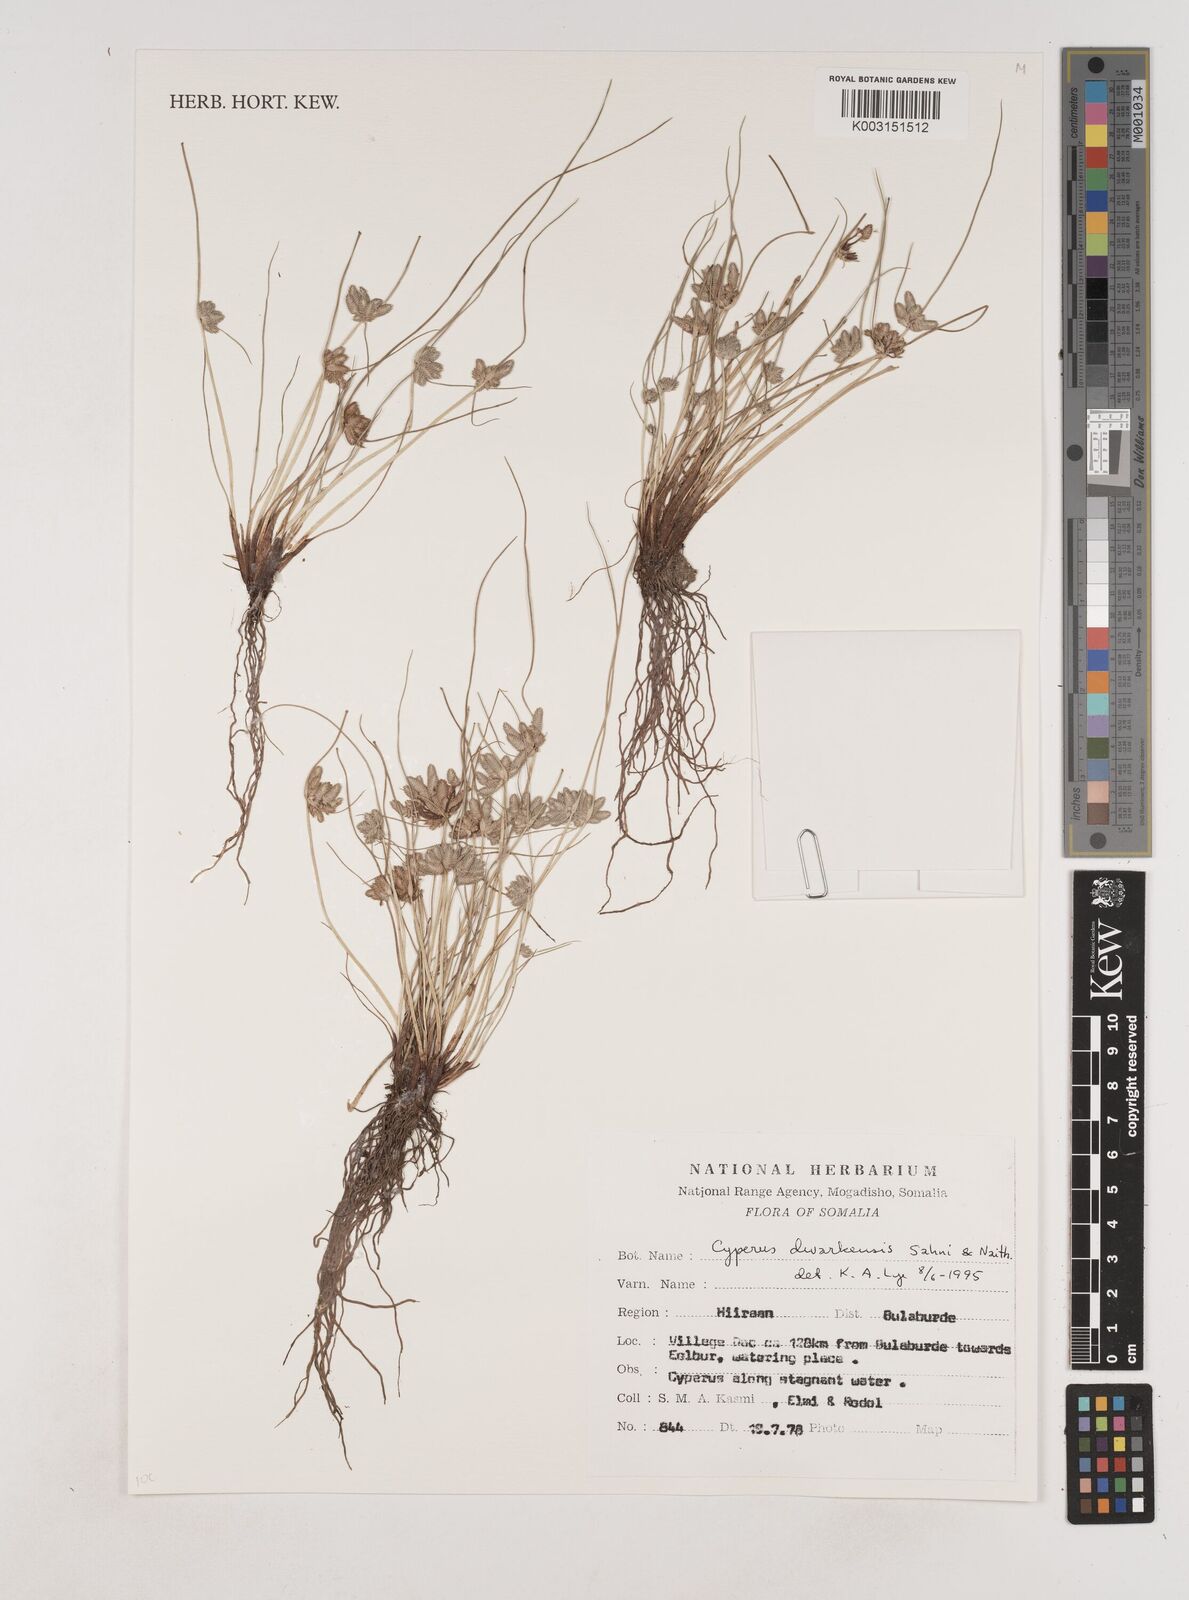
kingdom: Plantae
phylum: Tracheophyta
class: Liliopsida
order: Poales
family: Cyperaceae
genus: Cyperus
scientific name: Cyperus
